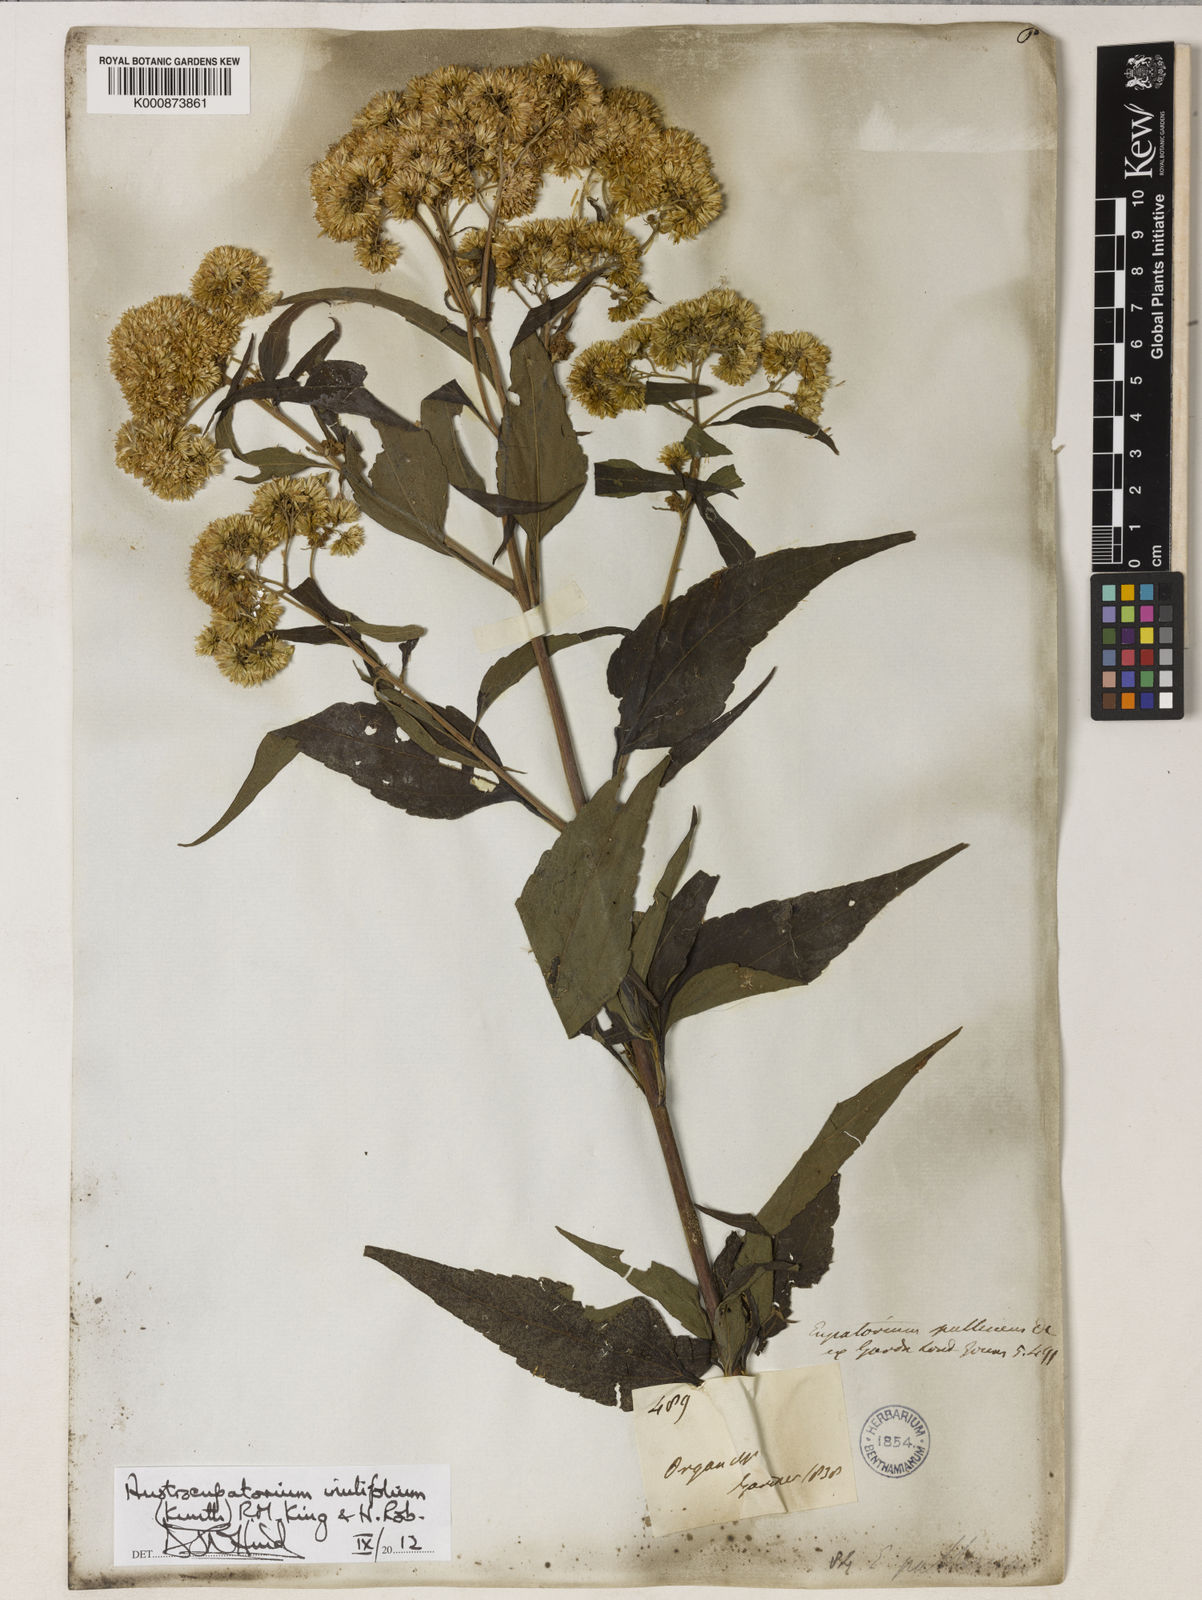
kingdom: Plantae
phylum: Tracheophyta
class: Magnoliopsida
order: Asterales
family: Asteraceae
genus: Austroeupatorium
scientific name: Austroeupatorium inulifolium
